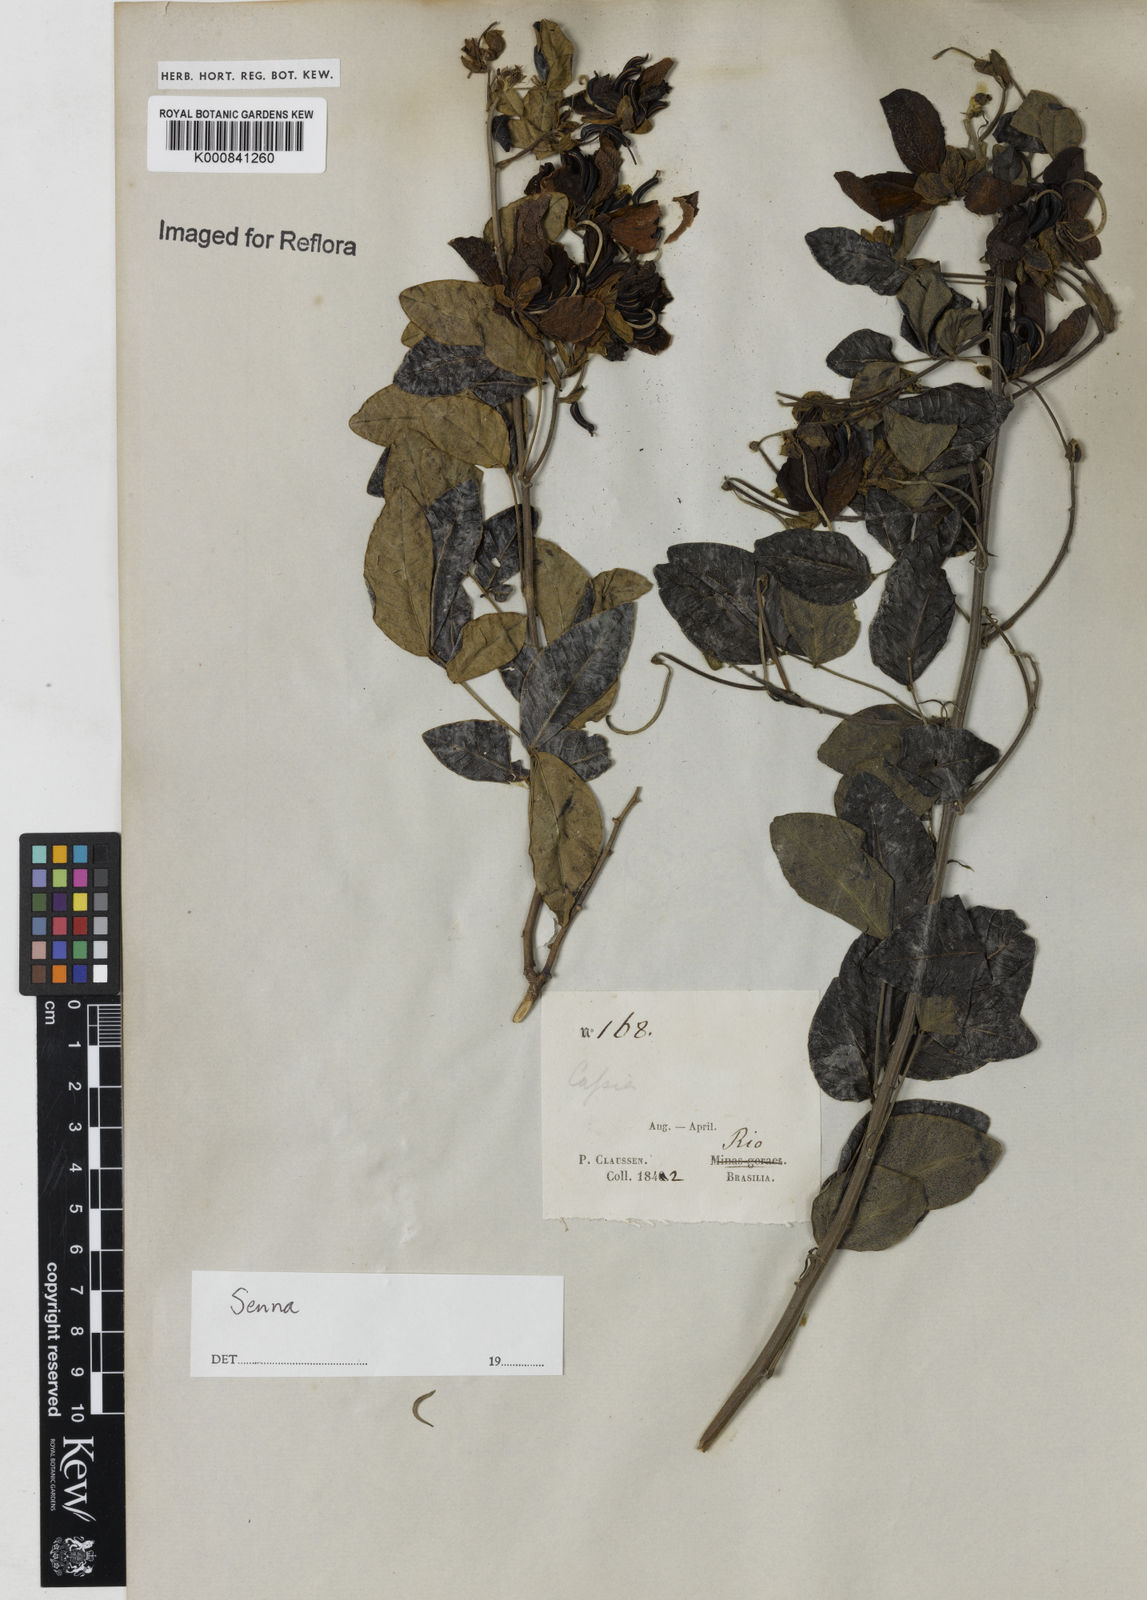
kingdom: Plantae
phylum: Tracheophyta
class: Magnoliopsida
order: Fabales
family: Fabaceae
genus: Senna
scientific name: Senna angulata
